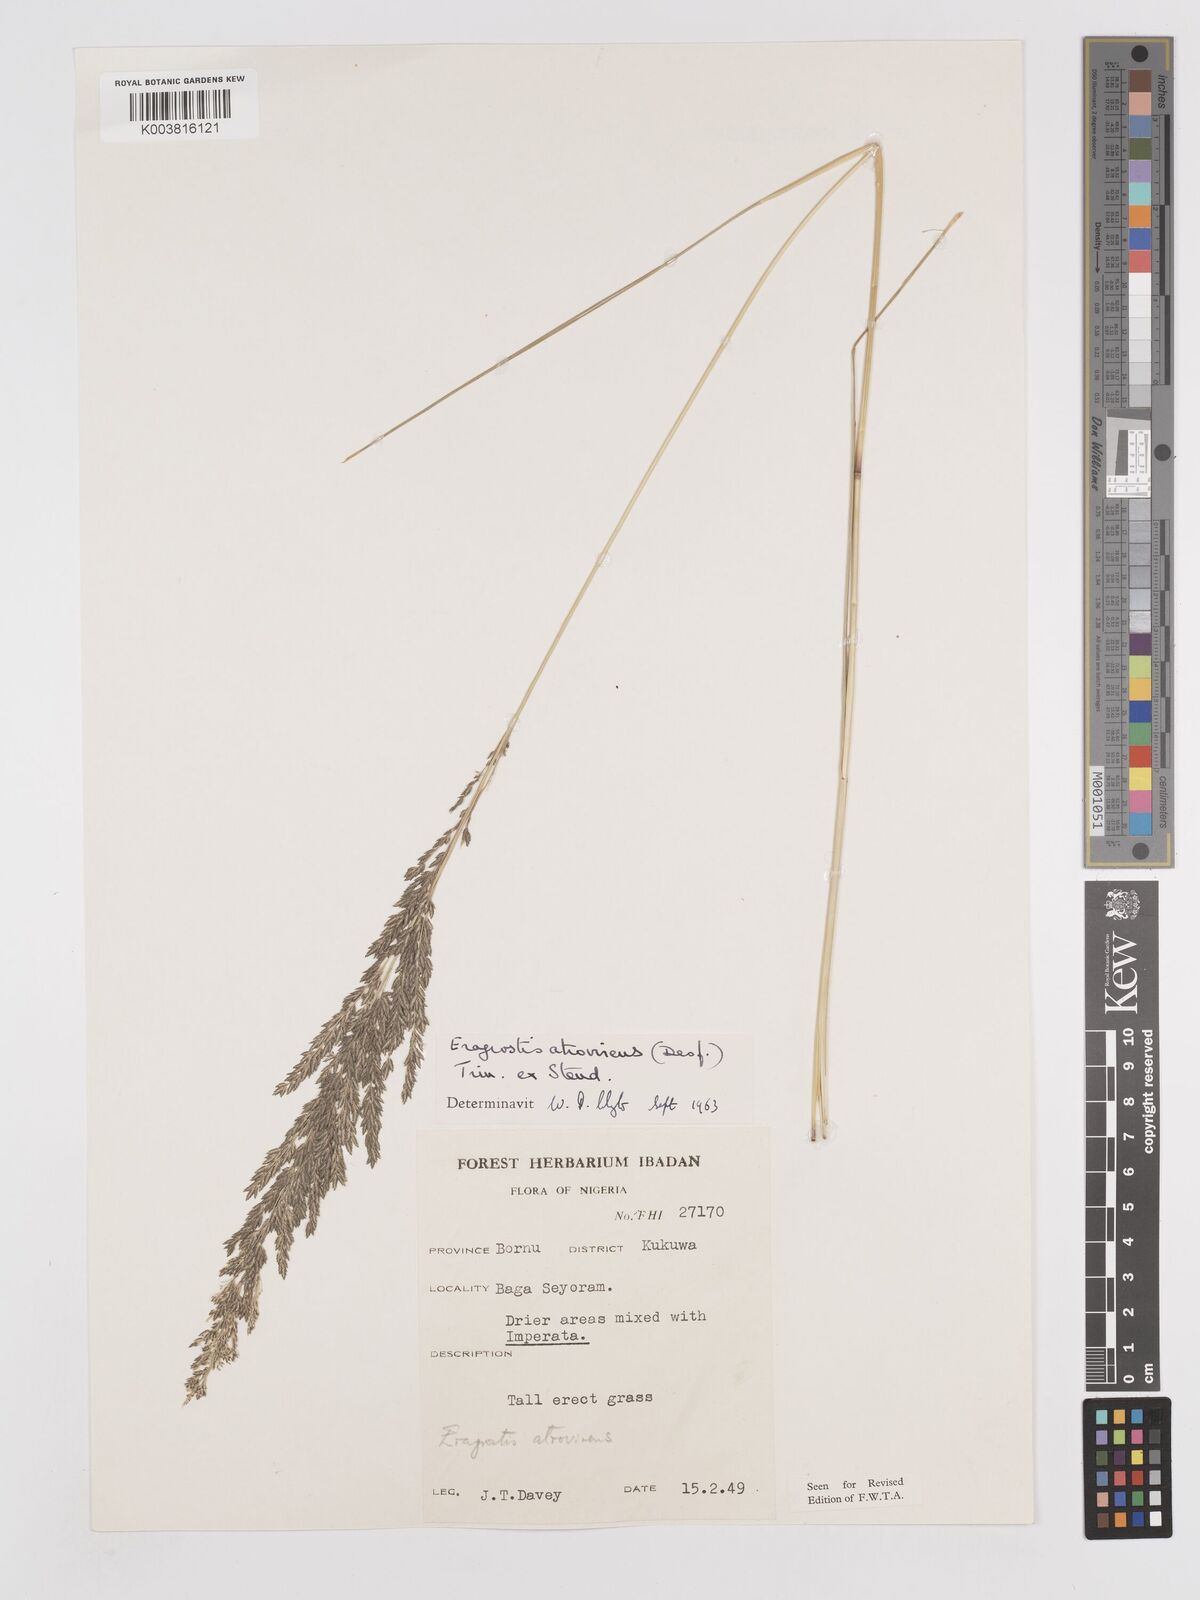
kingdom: Plantae
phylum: Tracheophyta
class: Liliopsida
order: Poales
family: Poaceae
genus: Eragrostis
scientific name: Eragrostis atrovirens
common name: Thalia lovegrass
